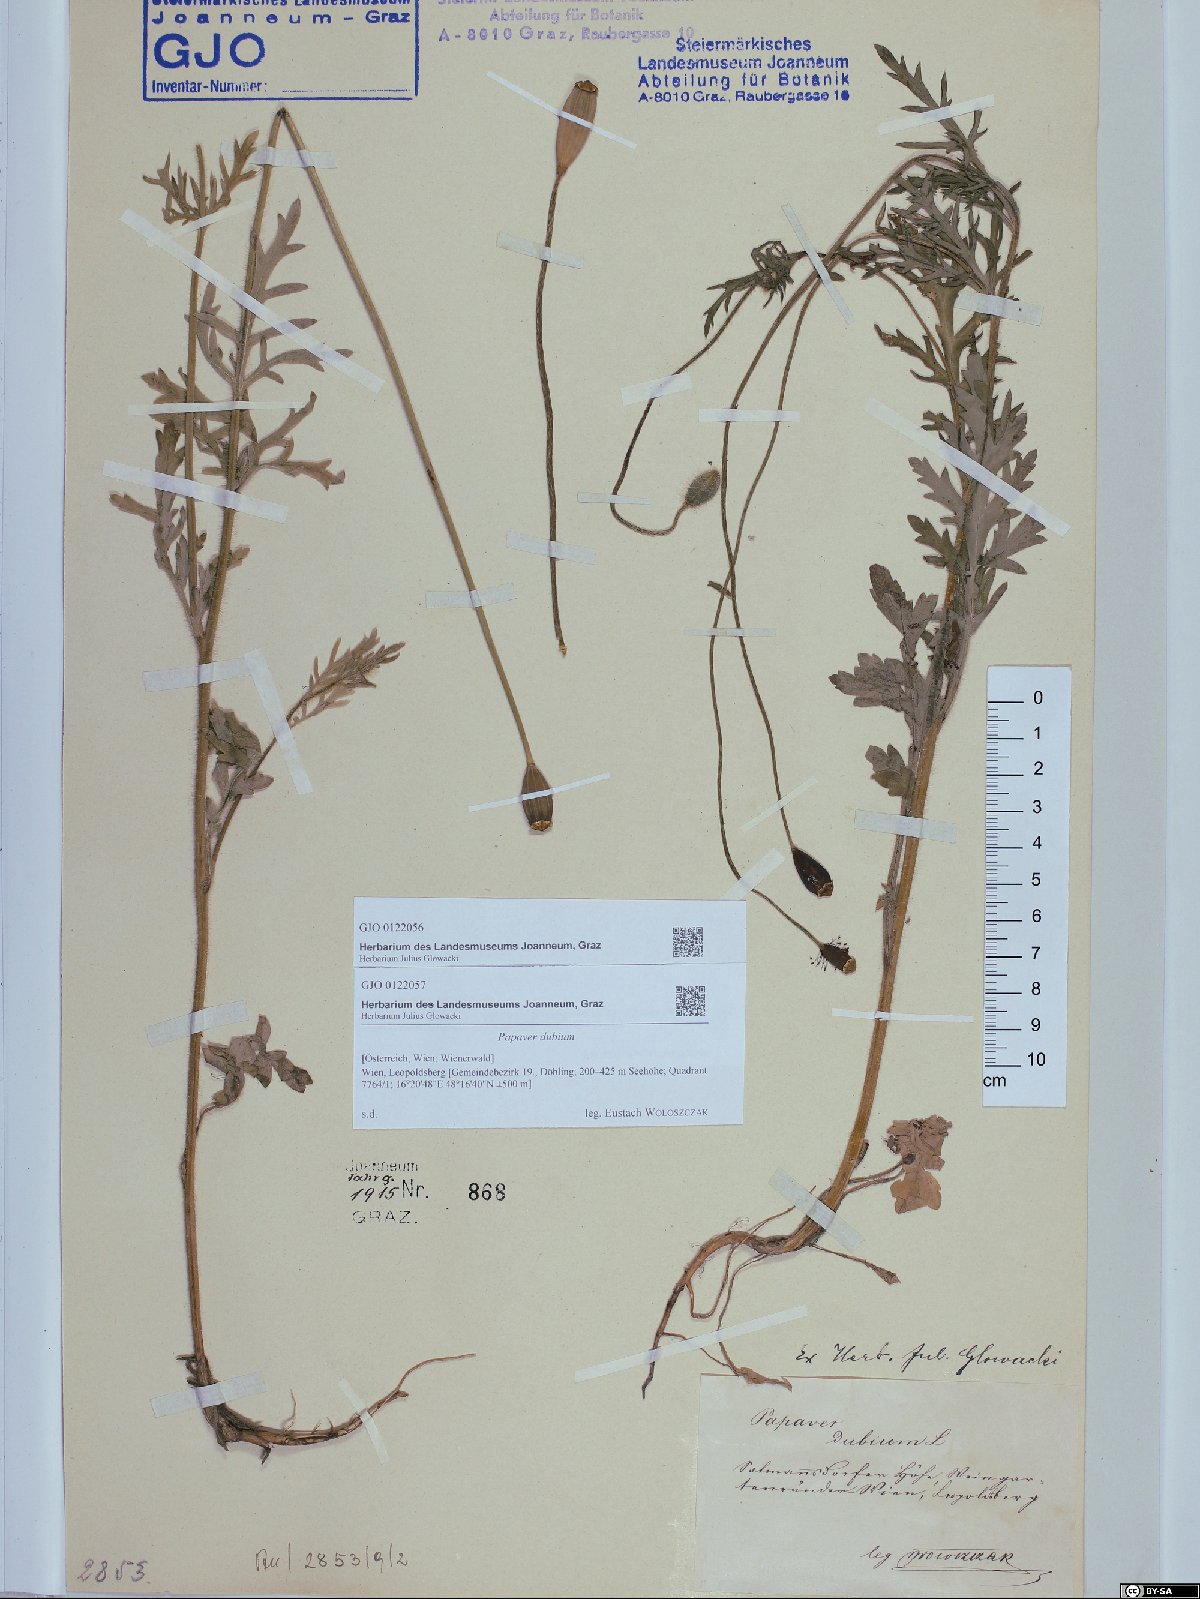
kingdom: Plantae
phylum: Tracheophyta
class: Magnoliopsida
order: Ranunculales
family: Papaveraceae
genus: Papaver
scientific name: Papaver dubium
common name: Long-headed poppy
